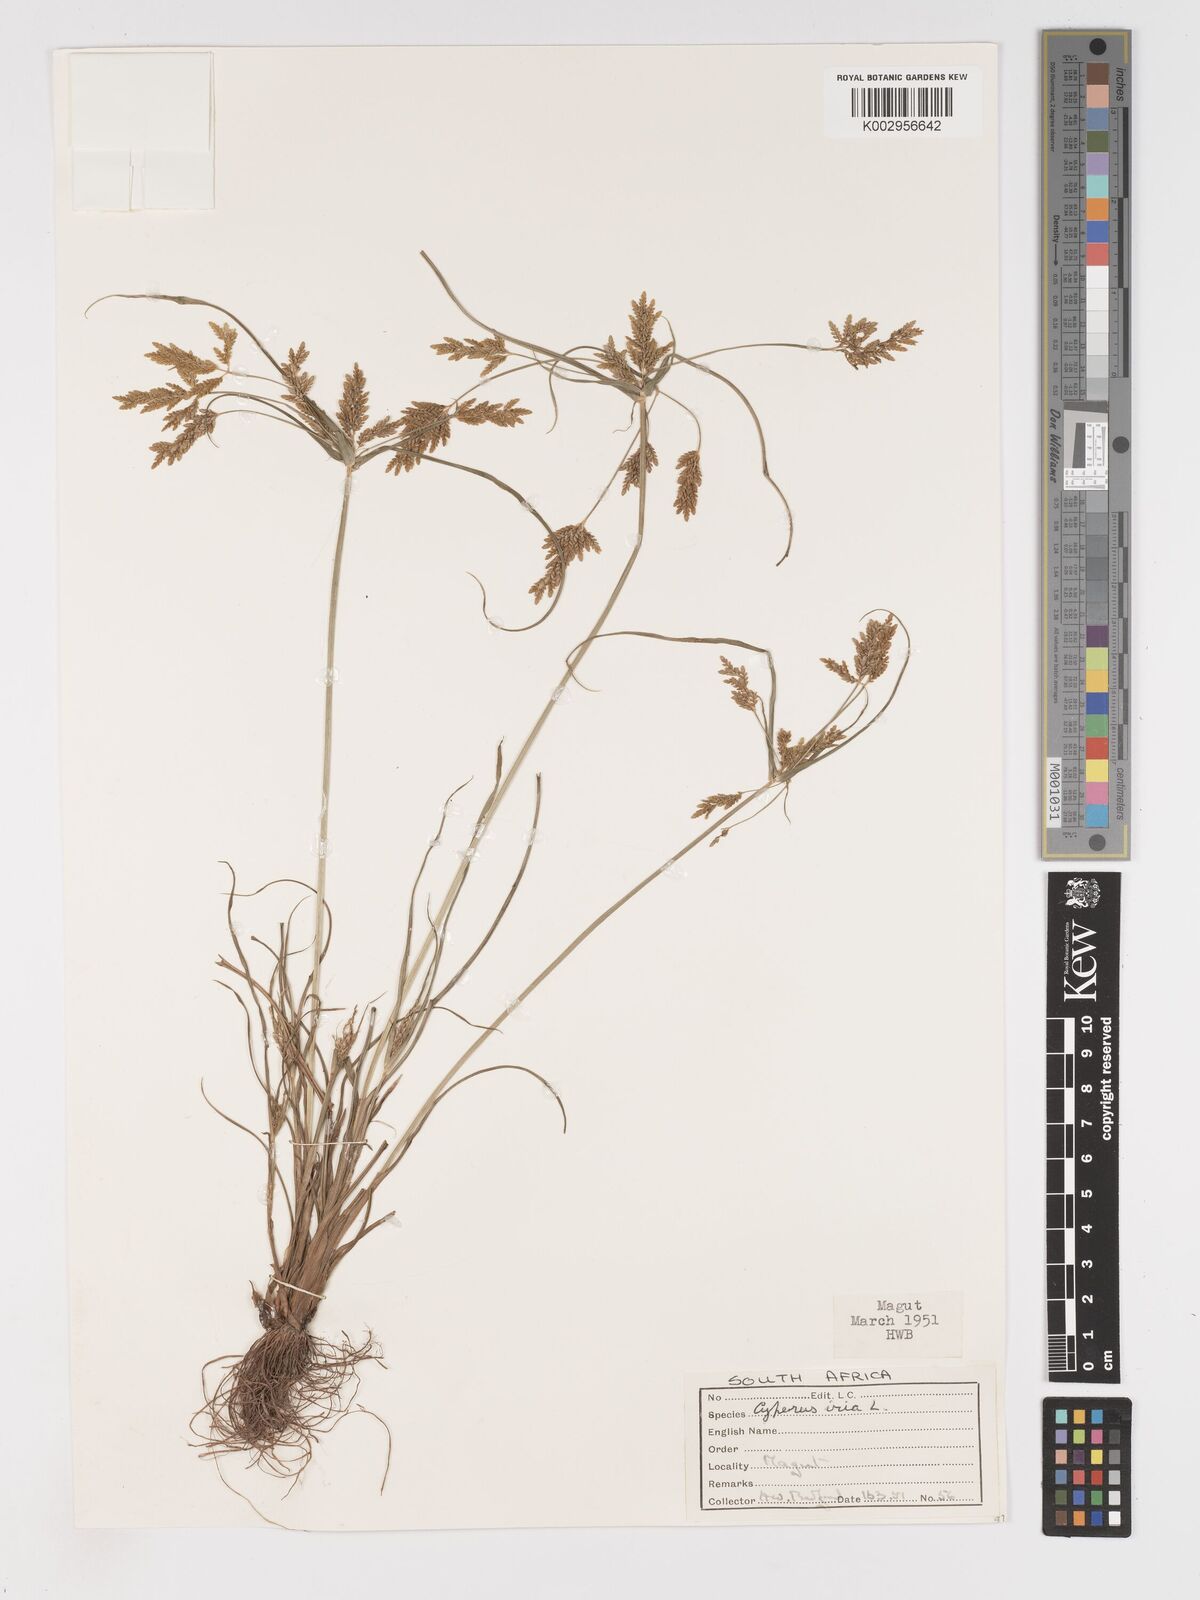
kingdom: Plantae
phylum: Tracheophyta
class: Liliopsida
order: Poales
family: Cyperaceae
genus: Cyperus
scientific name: Cyperus iria
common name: Ricefield flatsedge
